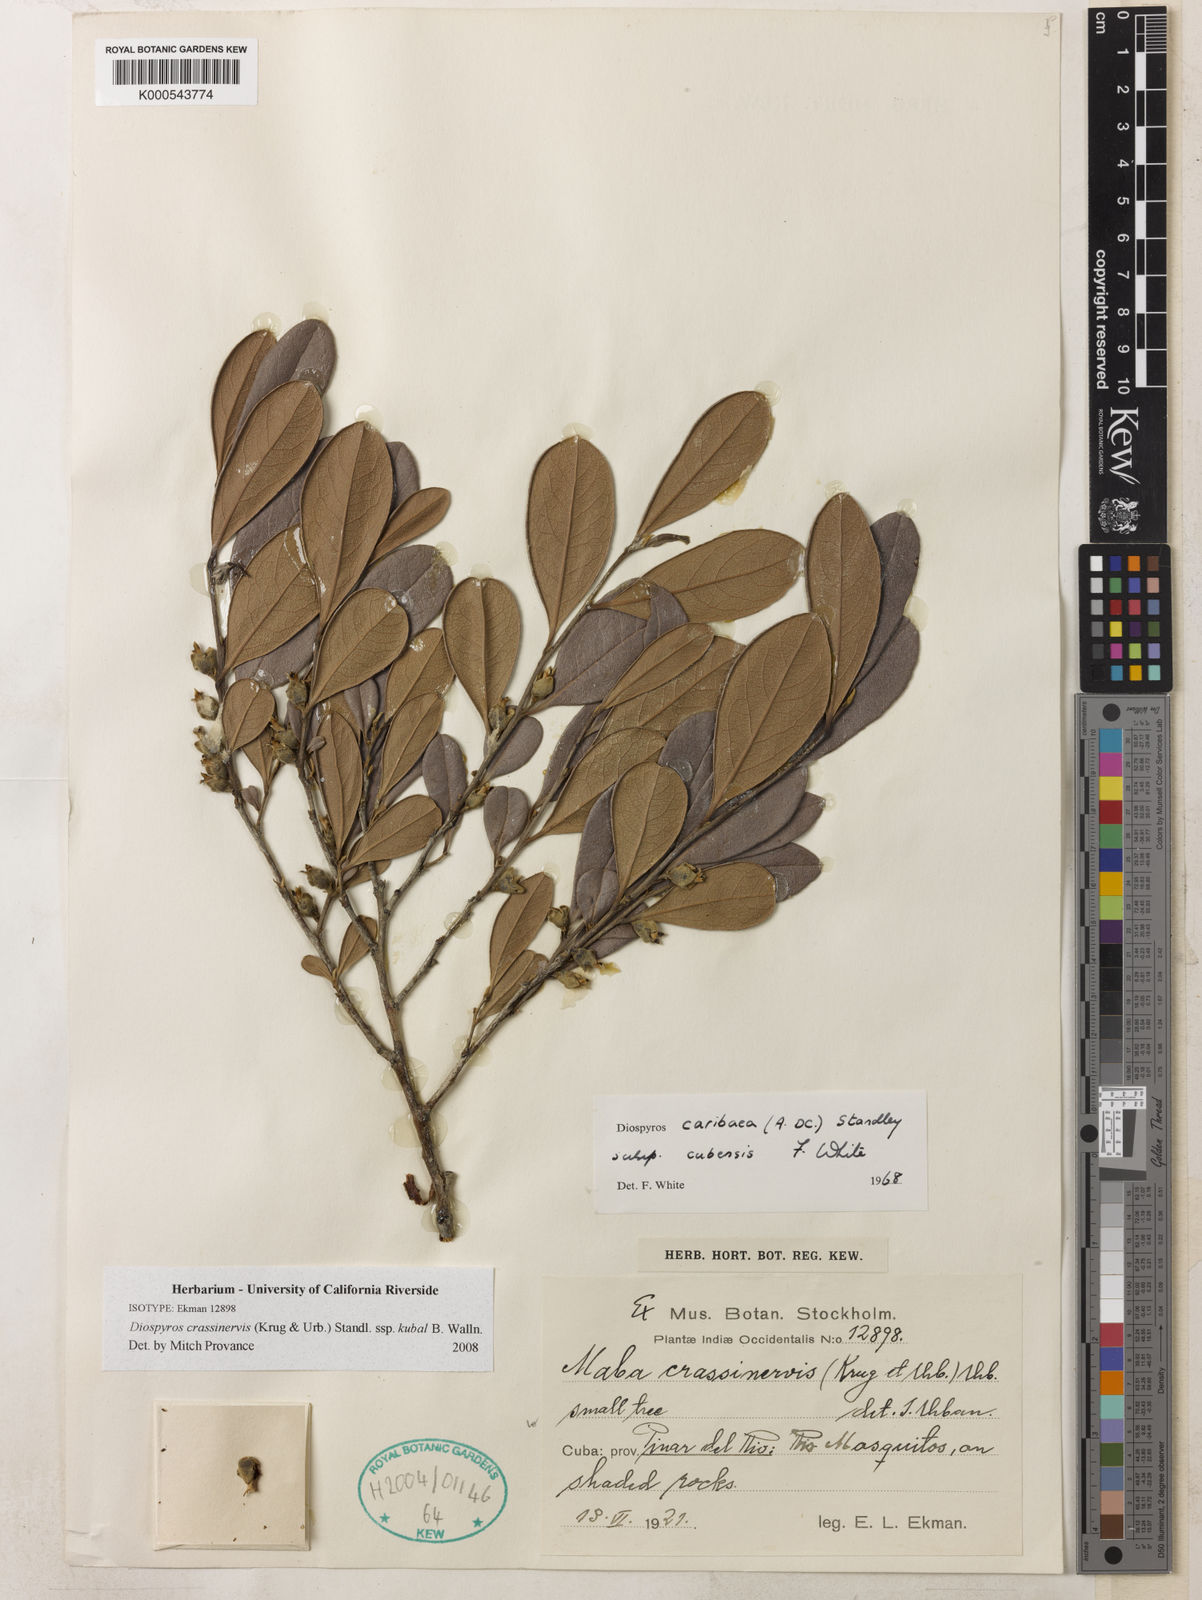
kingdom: Plantae
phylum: Tracheophyta
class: Magnoliopsida
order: Ericales
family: Ebenaceae
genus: Diospyros
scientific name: Diospyros crassinervis
